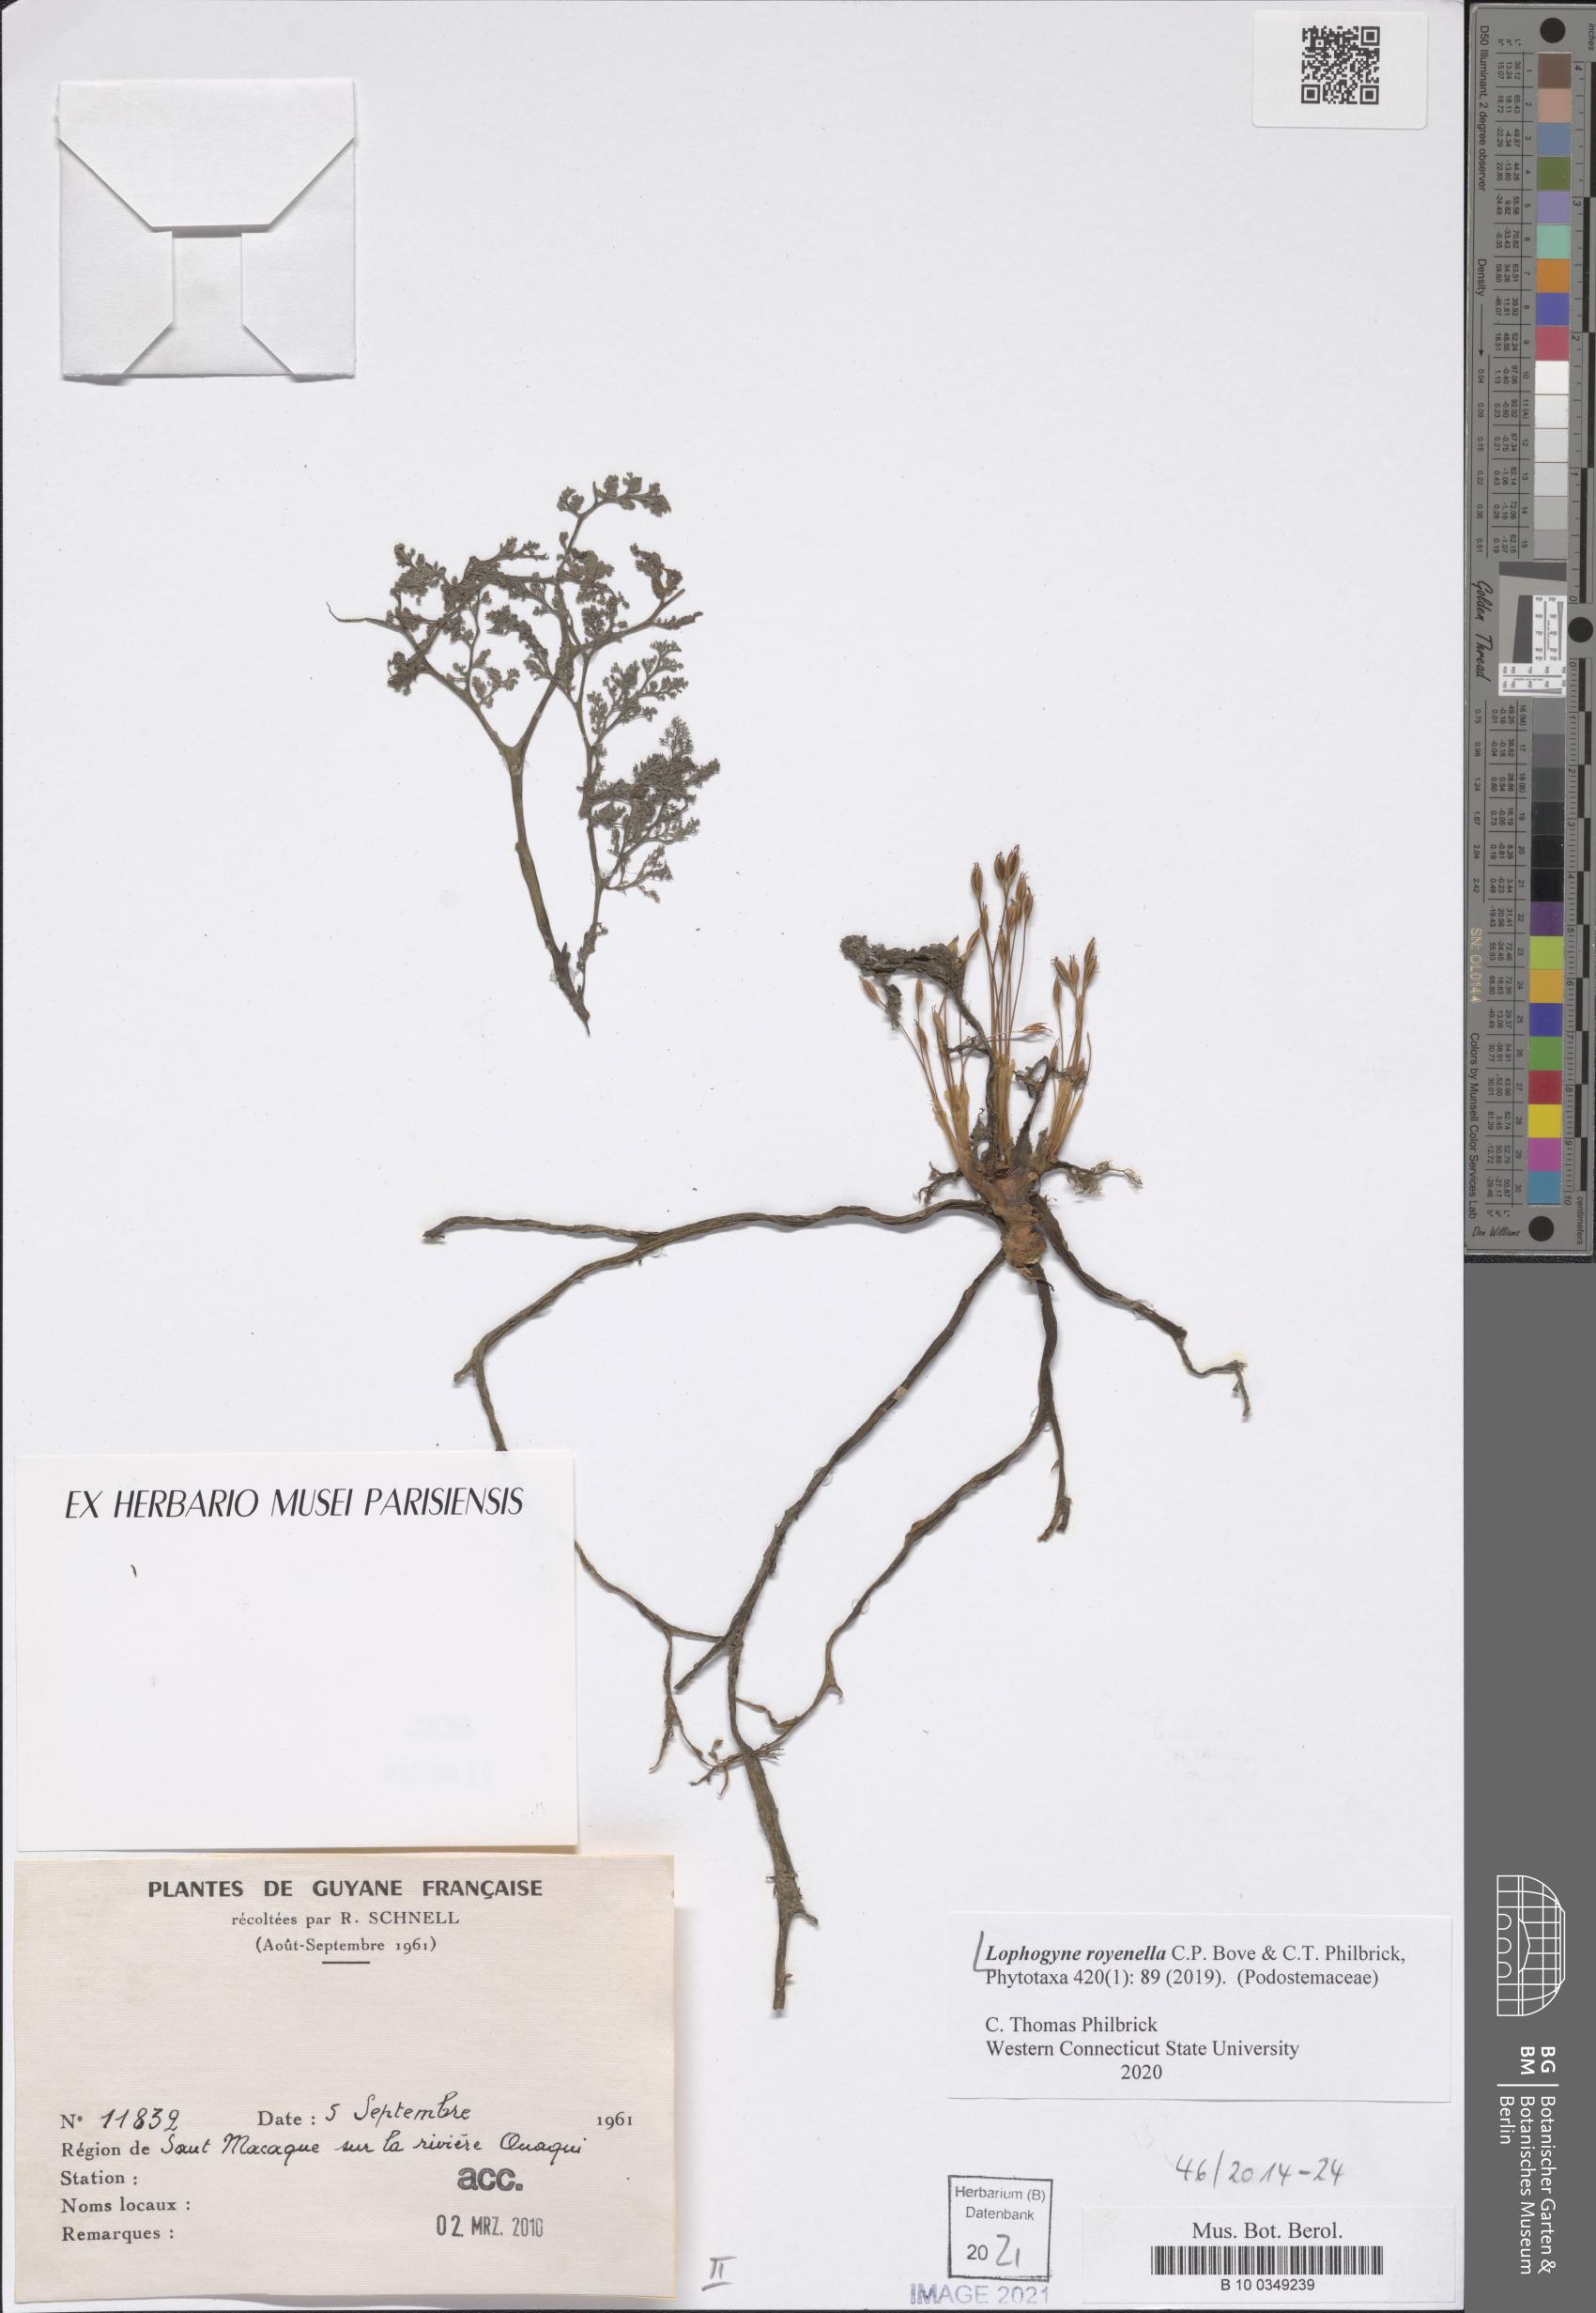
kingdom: Plantae
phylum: Tracheophyta
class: Magnoliopsida
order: Malpighiales
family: Podostemaceae
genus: Lophogyne
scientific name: Lophogyne royenella
